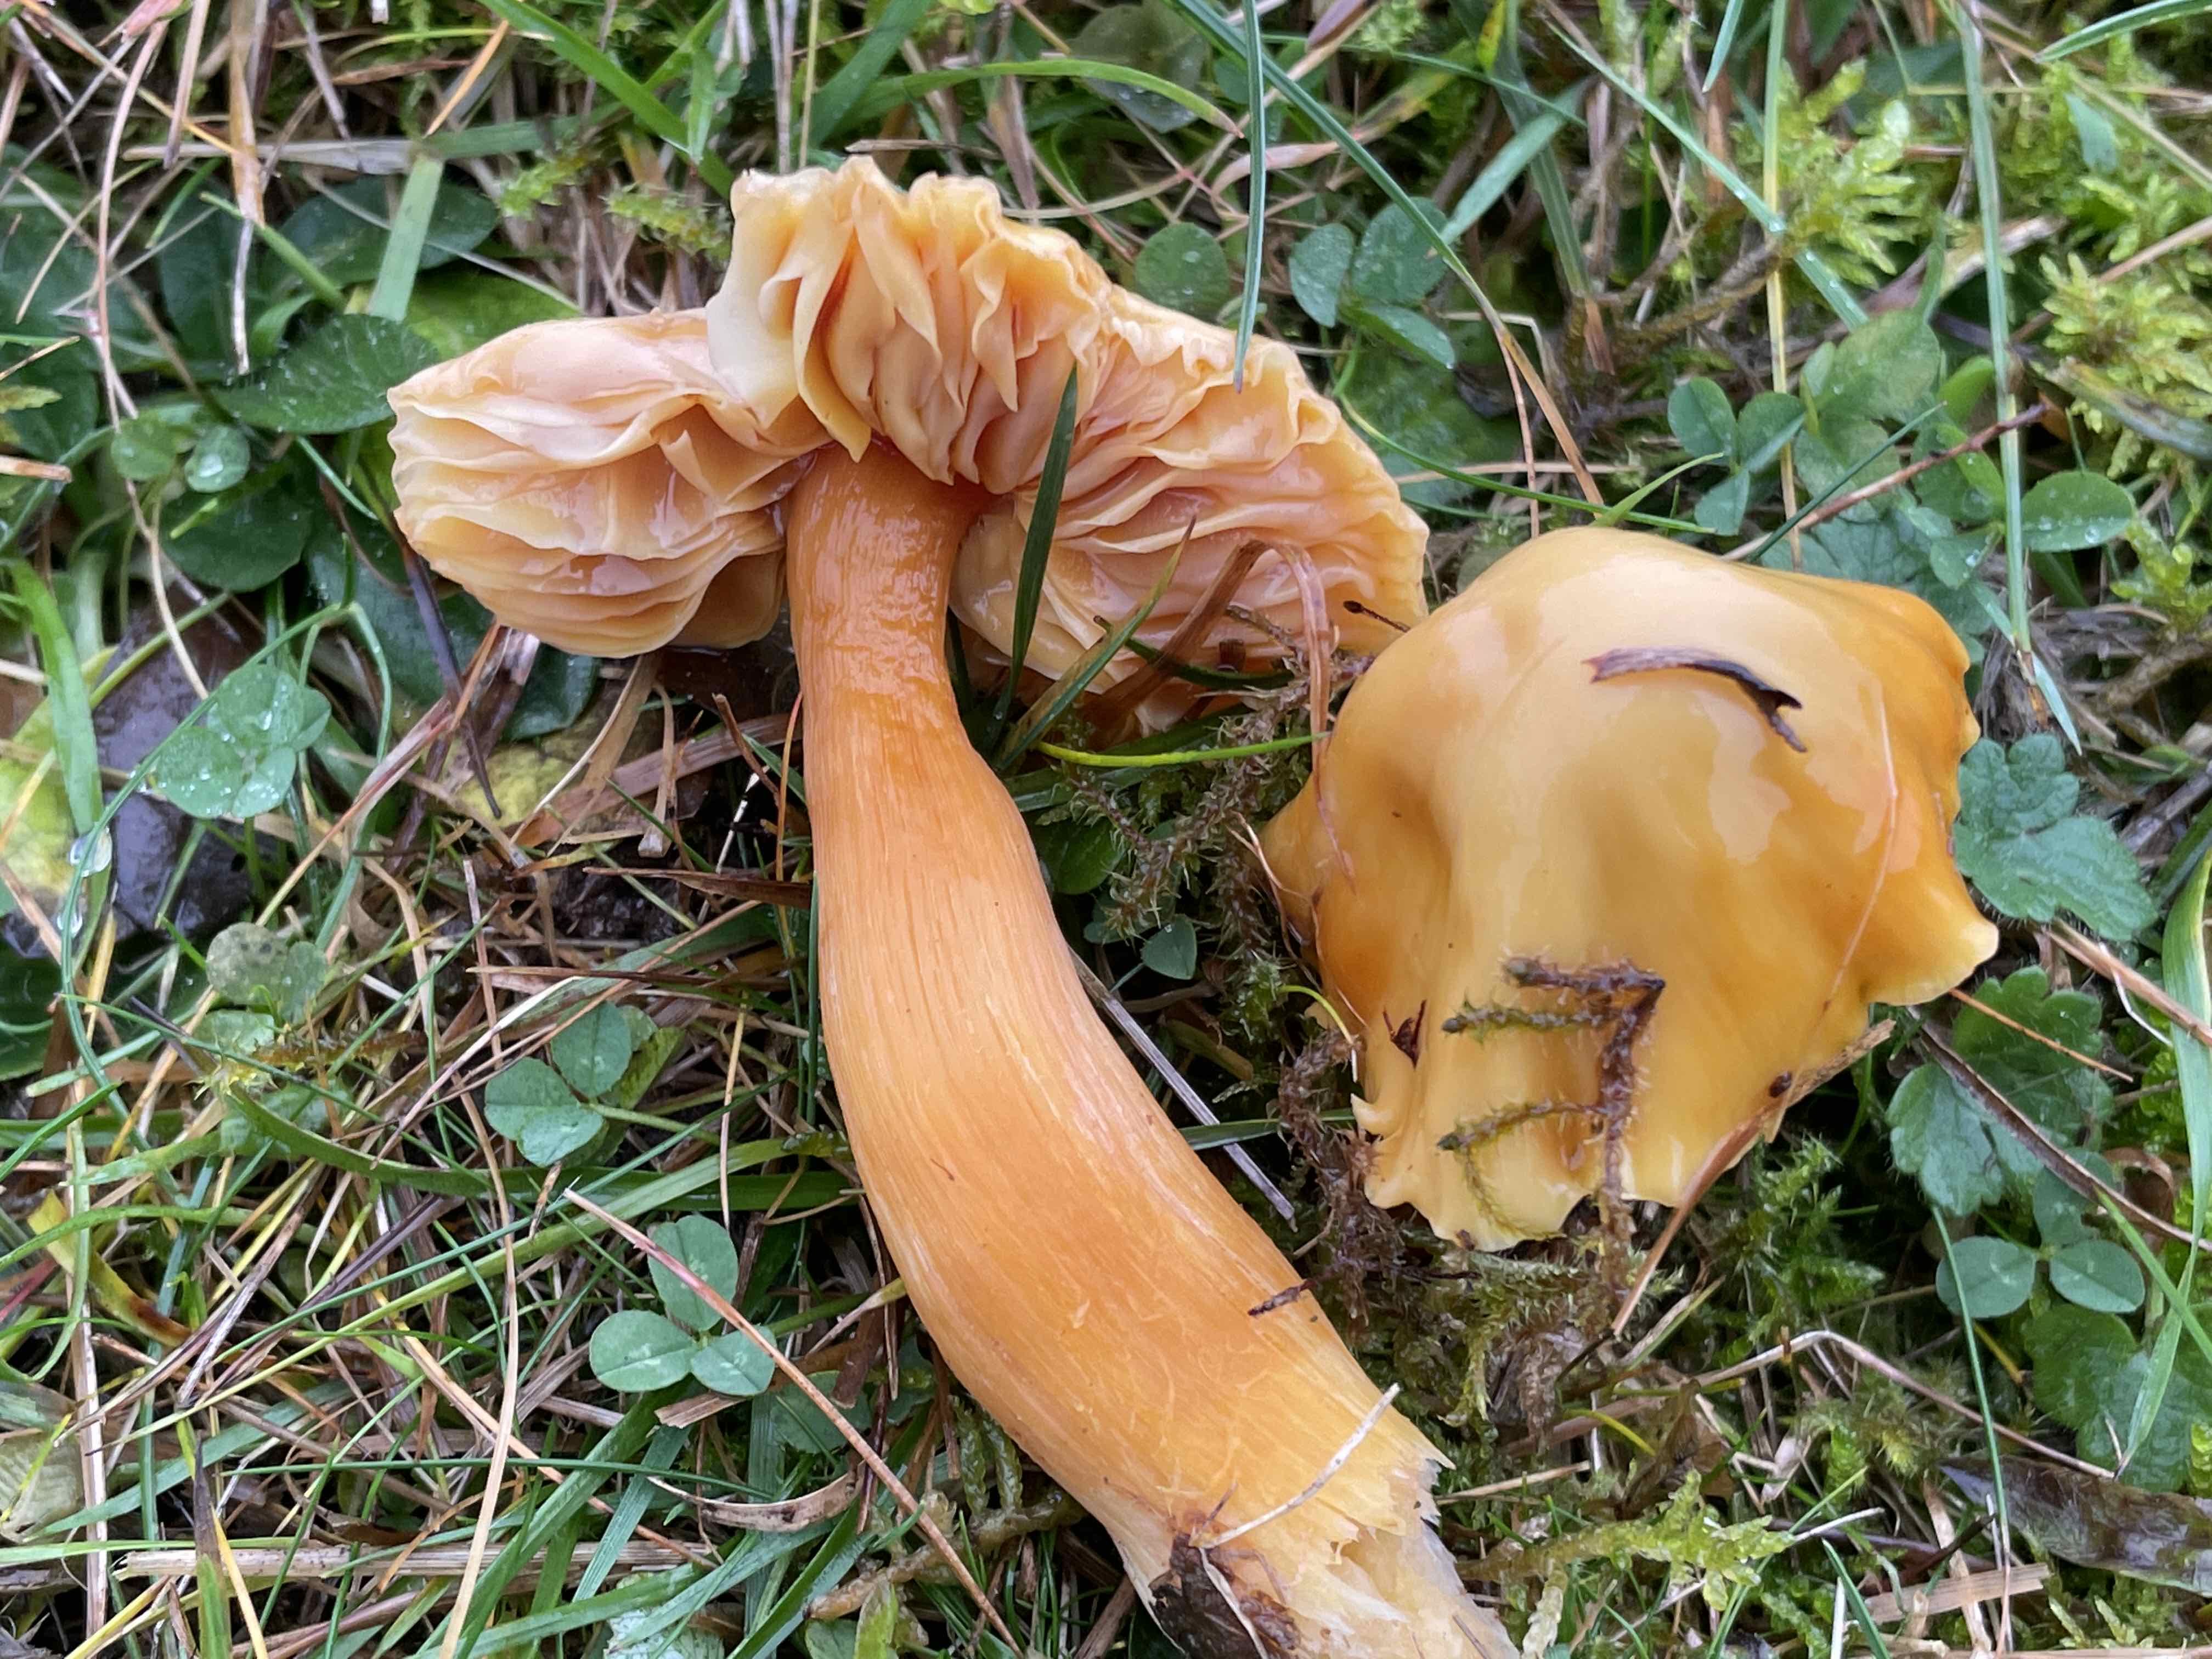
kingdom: Fungi
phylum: Basidiomycota
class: Agaricomycetes
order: Agaricales
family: Hygrophoraceae
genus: Hygrocybe
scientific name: Hygrocybe punicea
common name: skarlagen-vokshat
